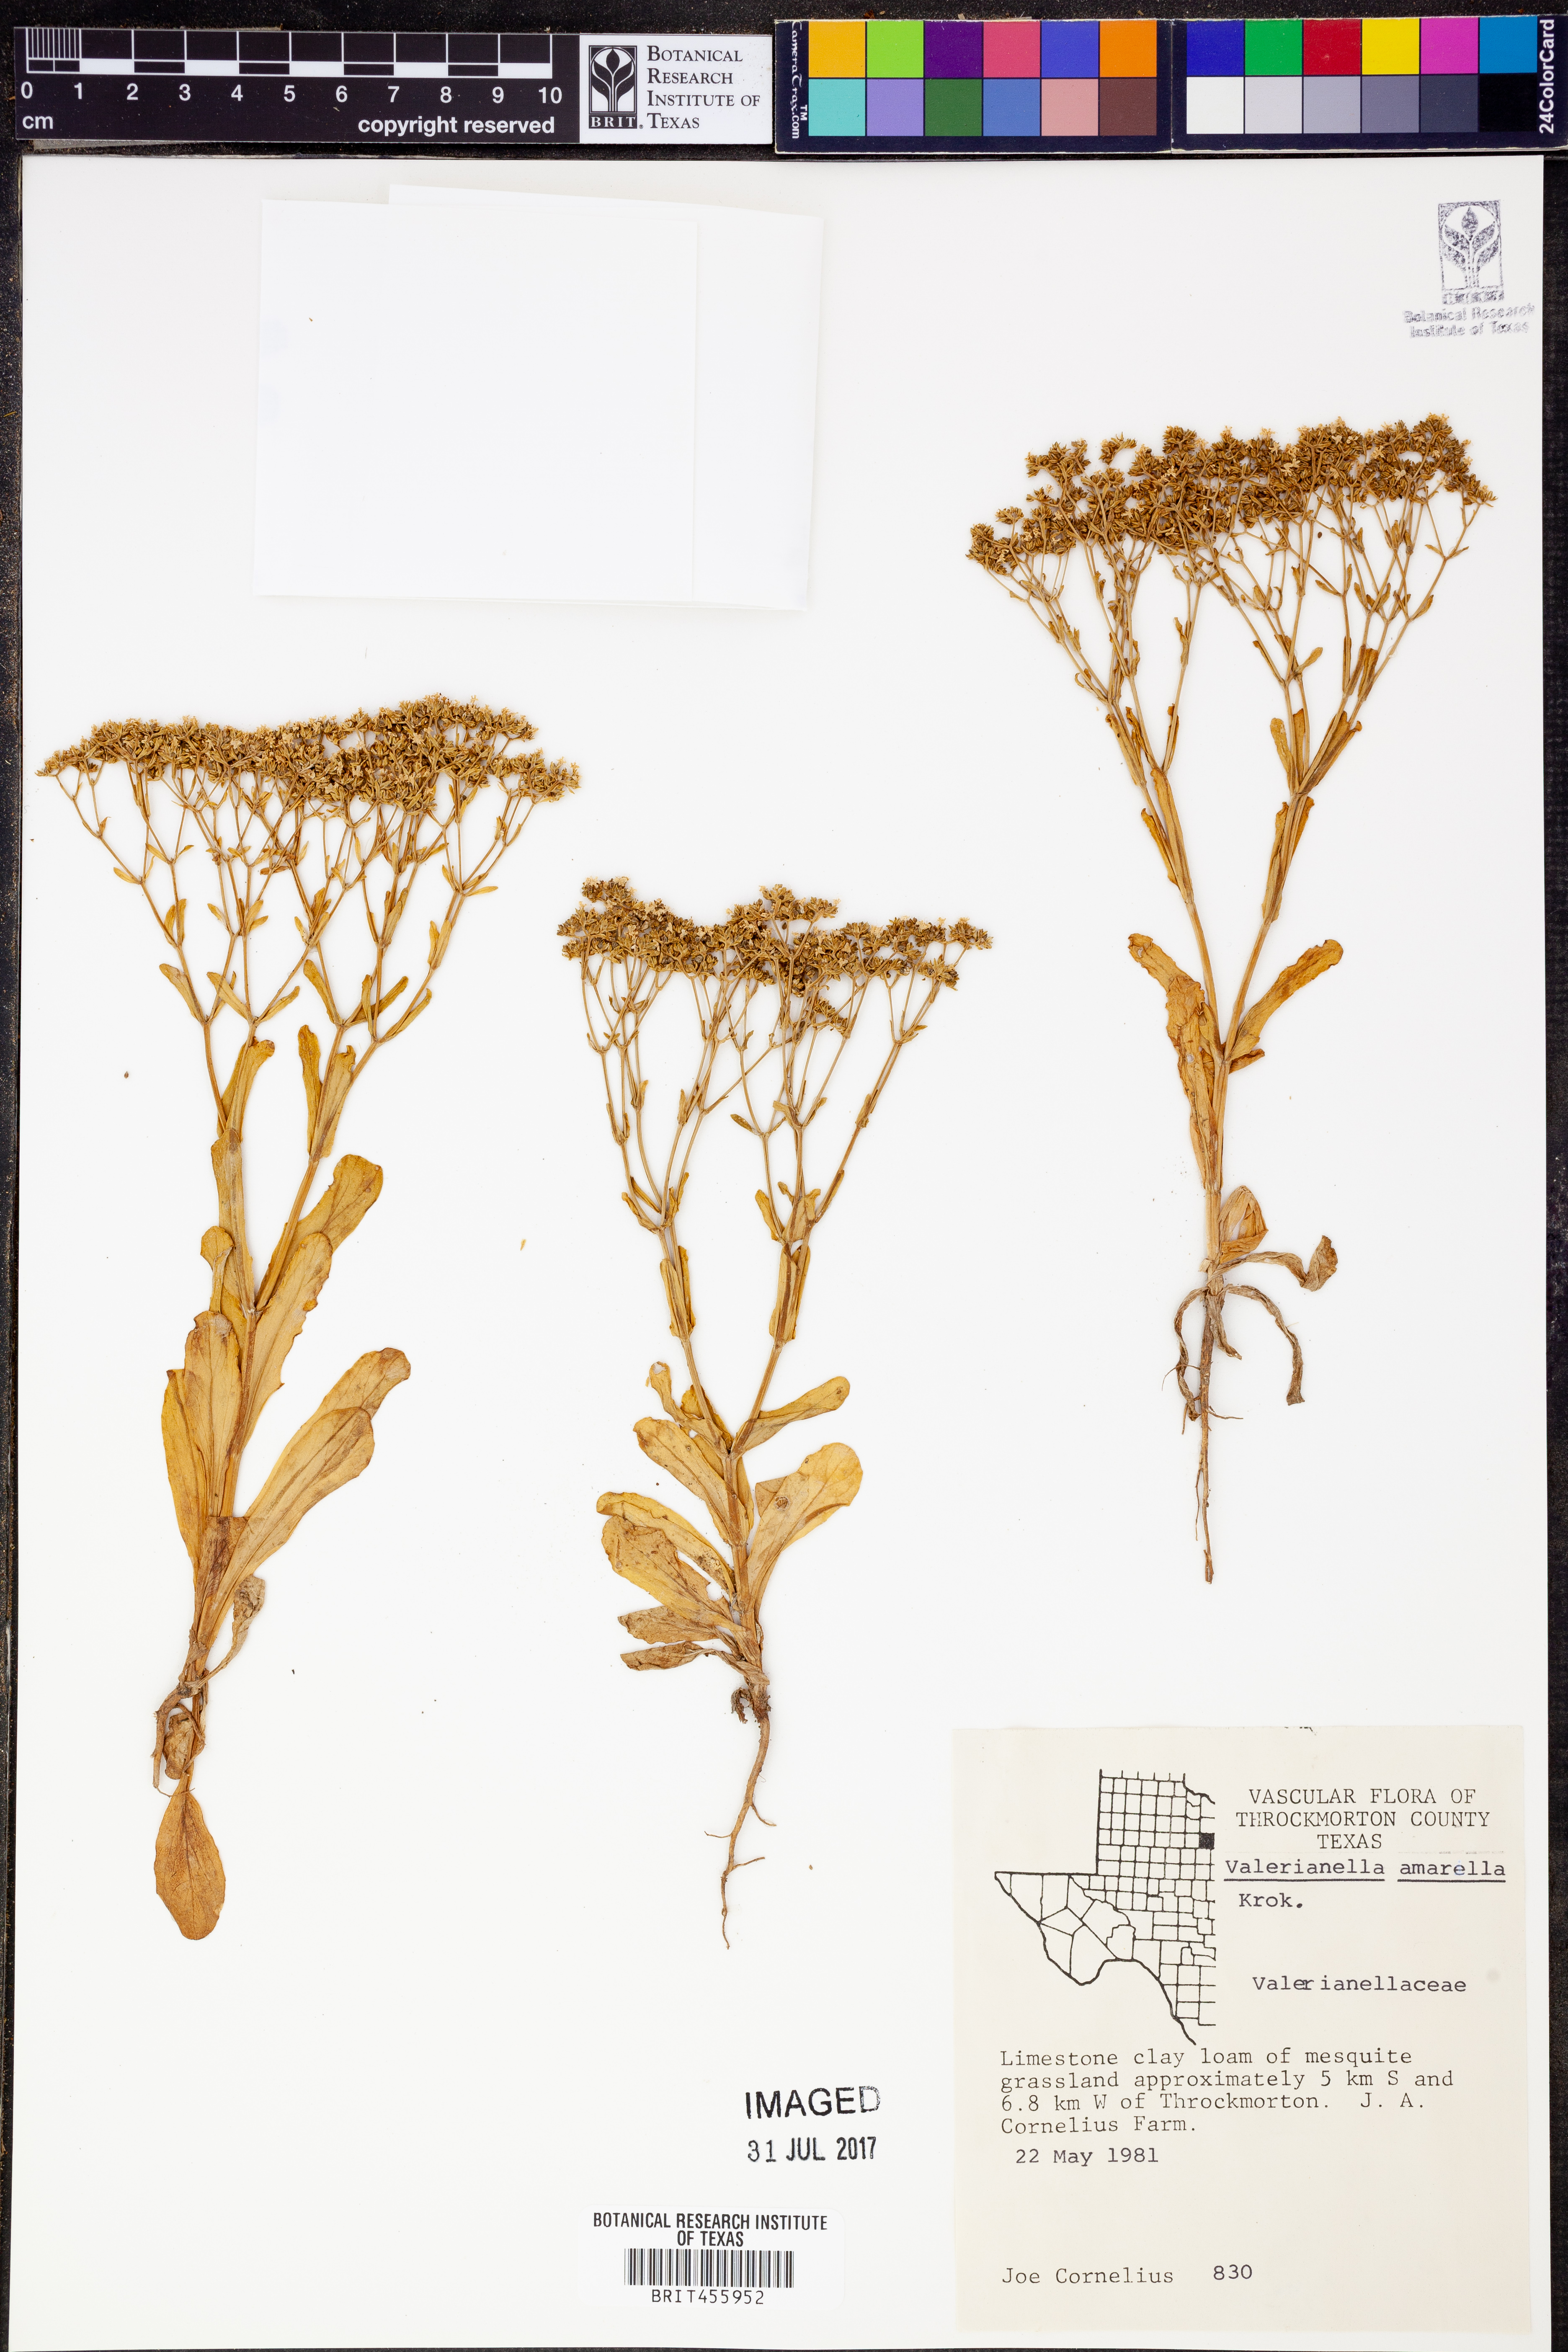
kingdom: Plantae
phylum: Tracheophyta
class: Magnoliopsida
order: Dipsacales
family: Caprifoliaceae
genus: Valerianella
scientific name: Valerianella amarella
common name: Hariy cornsalad
